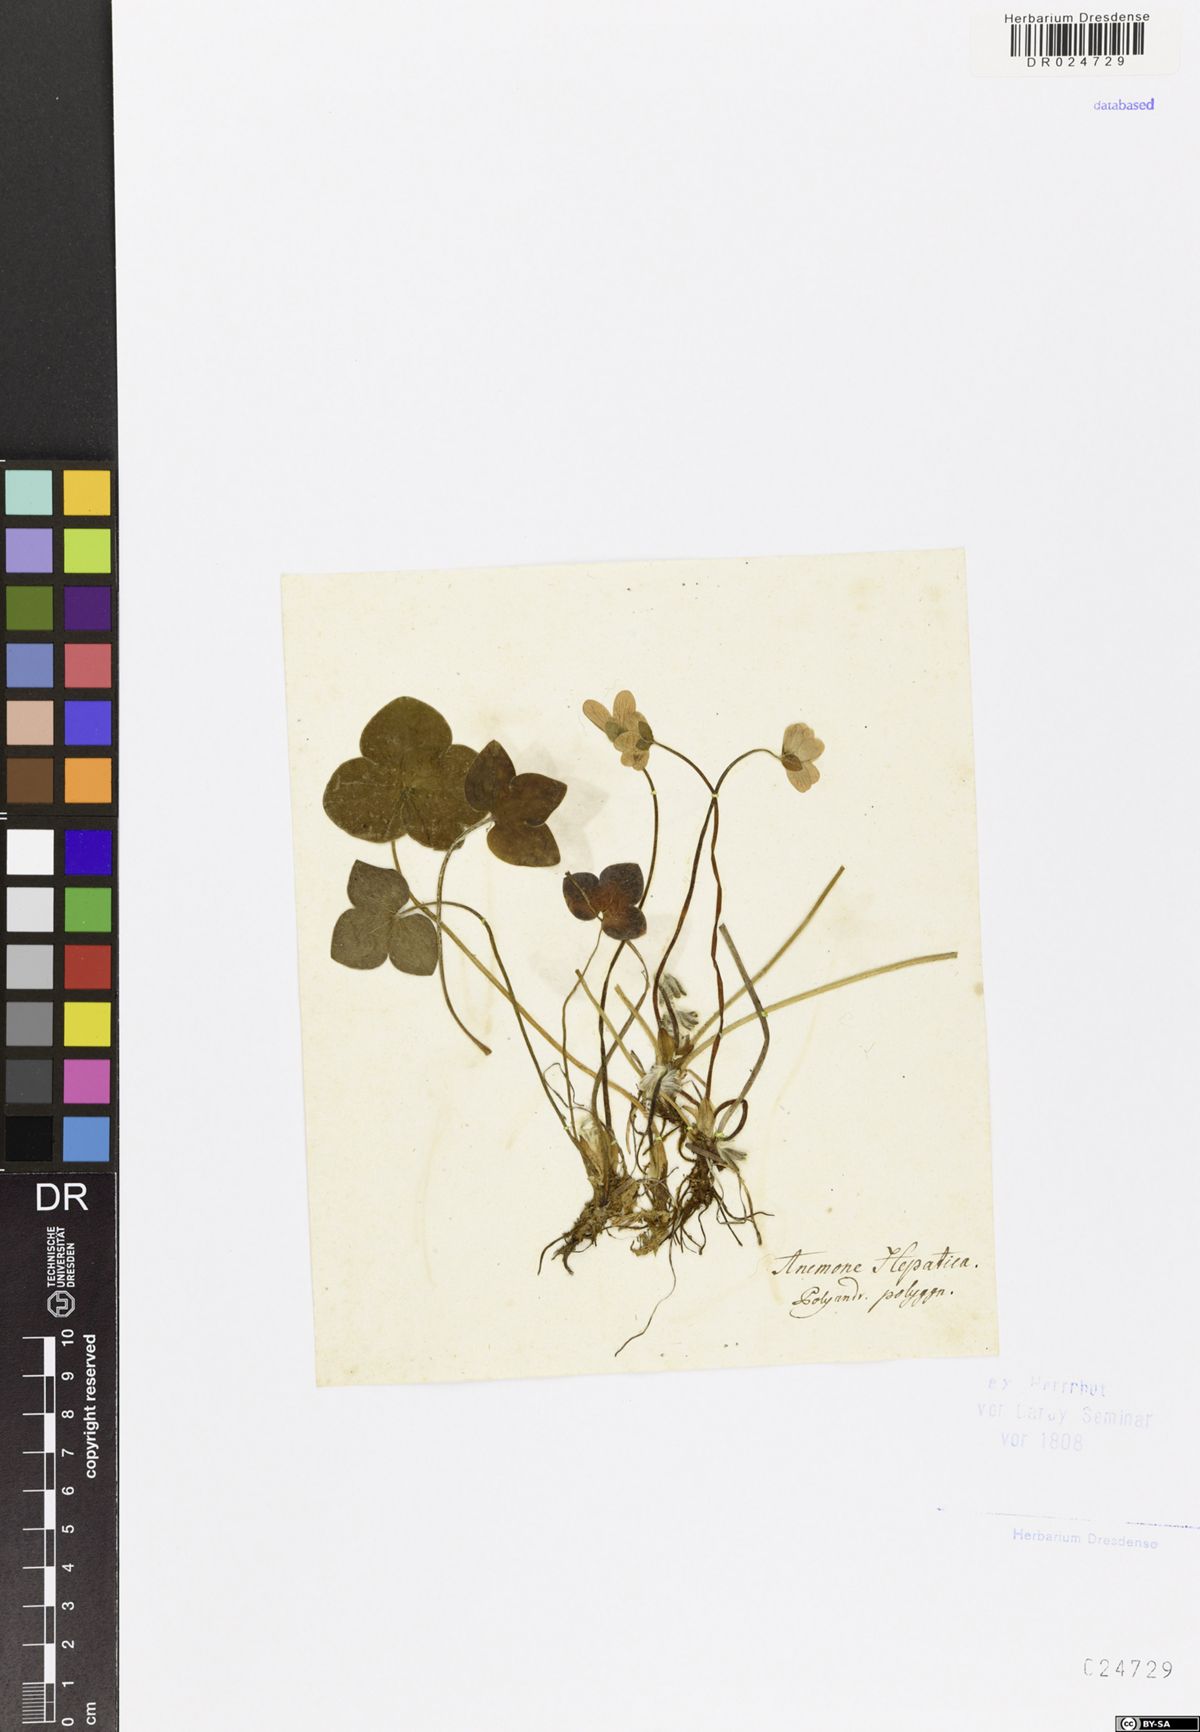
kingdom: Plantae
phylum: Tracheophyta
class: Magnoliopsida
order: Ranunculales
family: Ranunculaceae
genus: Hepatica
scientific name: Hepatica nobilis
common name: Liverleaf
